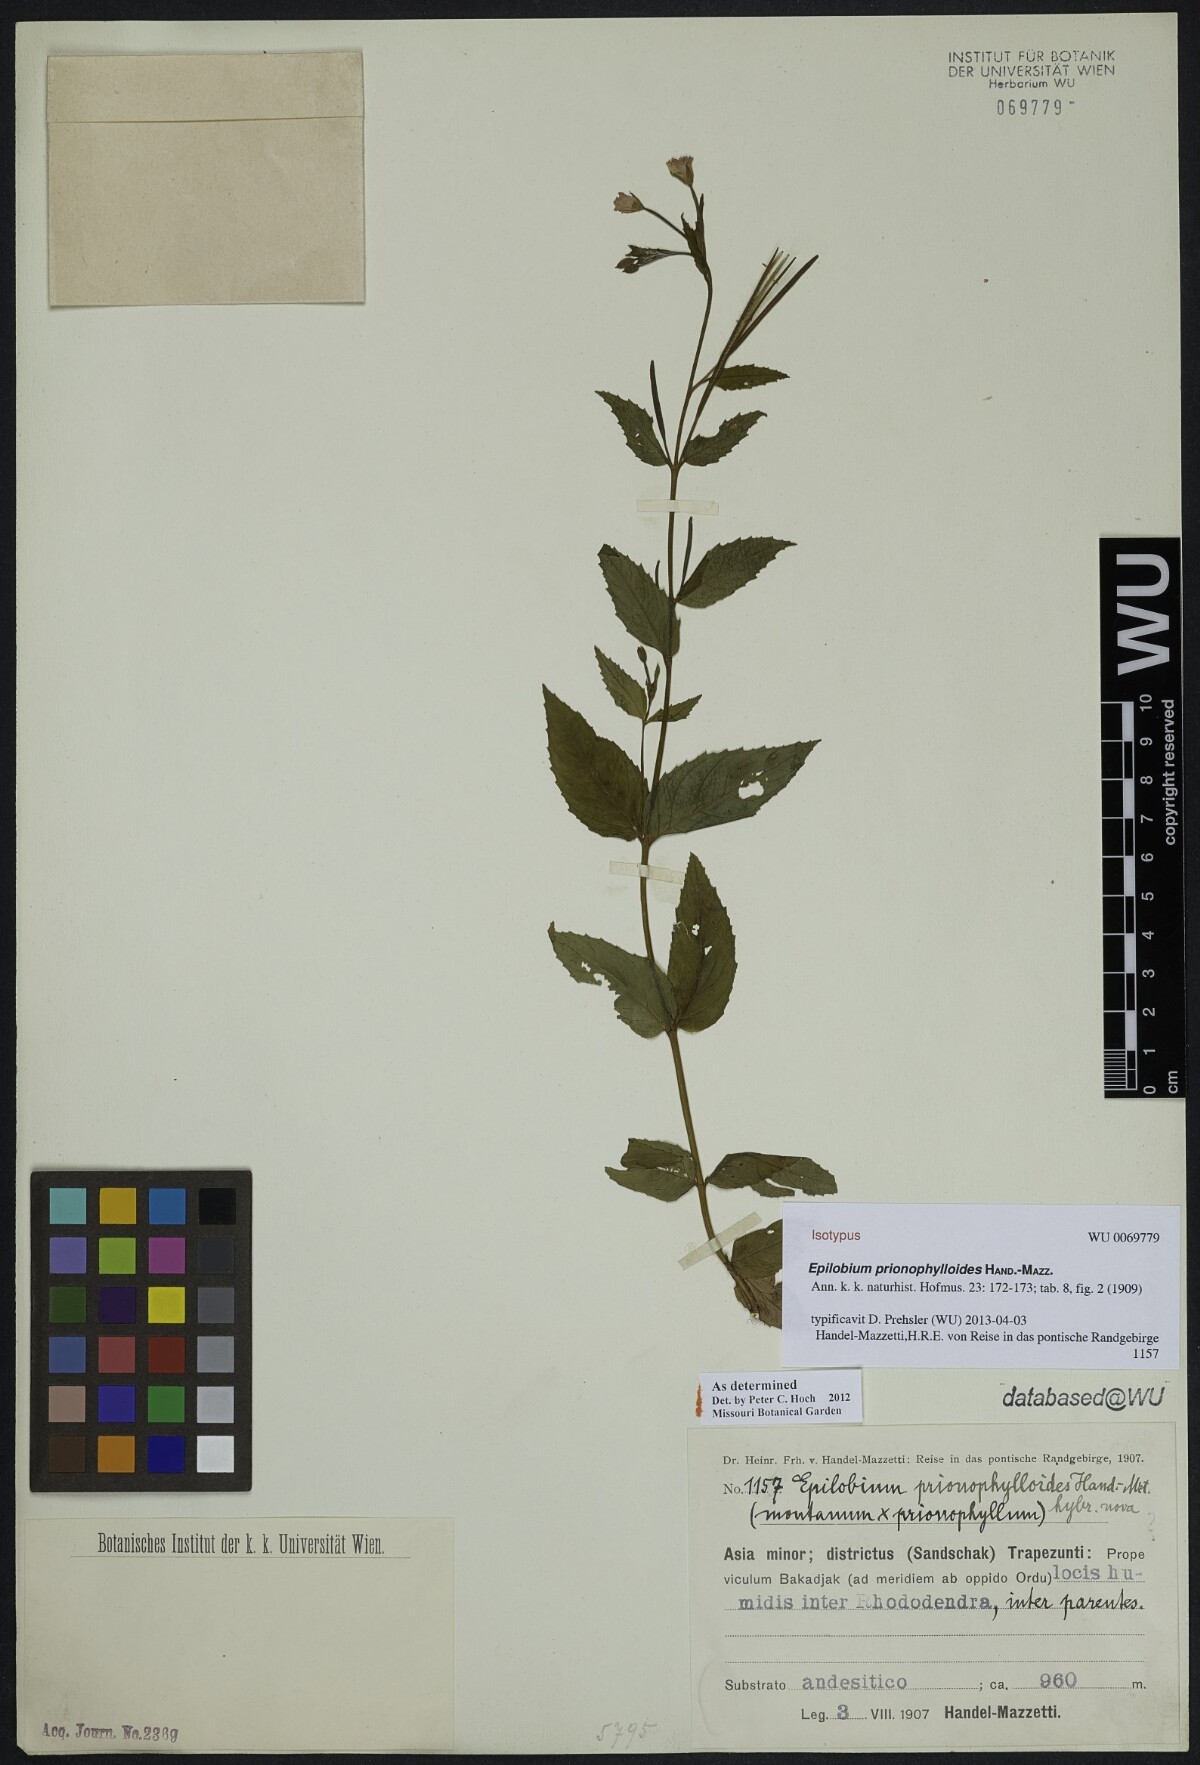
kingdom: Plantae
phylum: Tracheophyta
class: Magnoliopsida
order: Myrtales
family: Onagraceae
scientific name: Onagraceae
